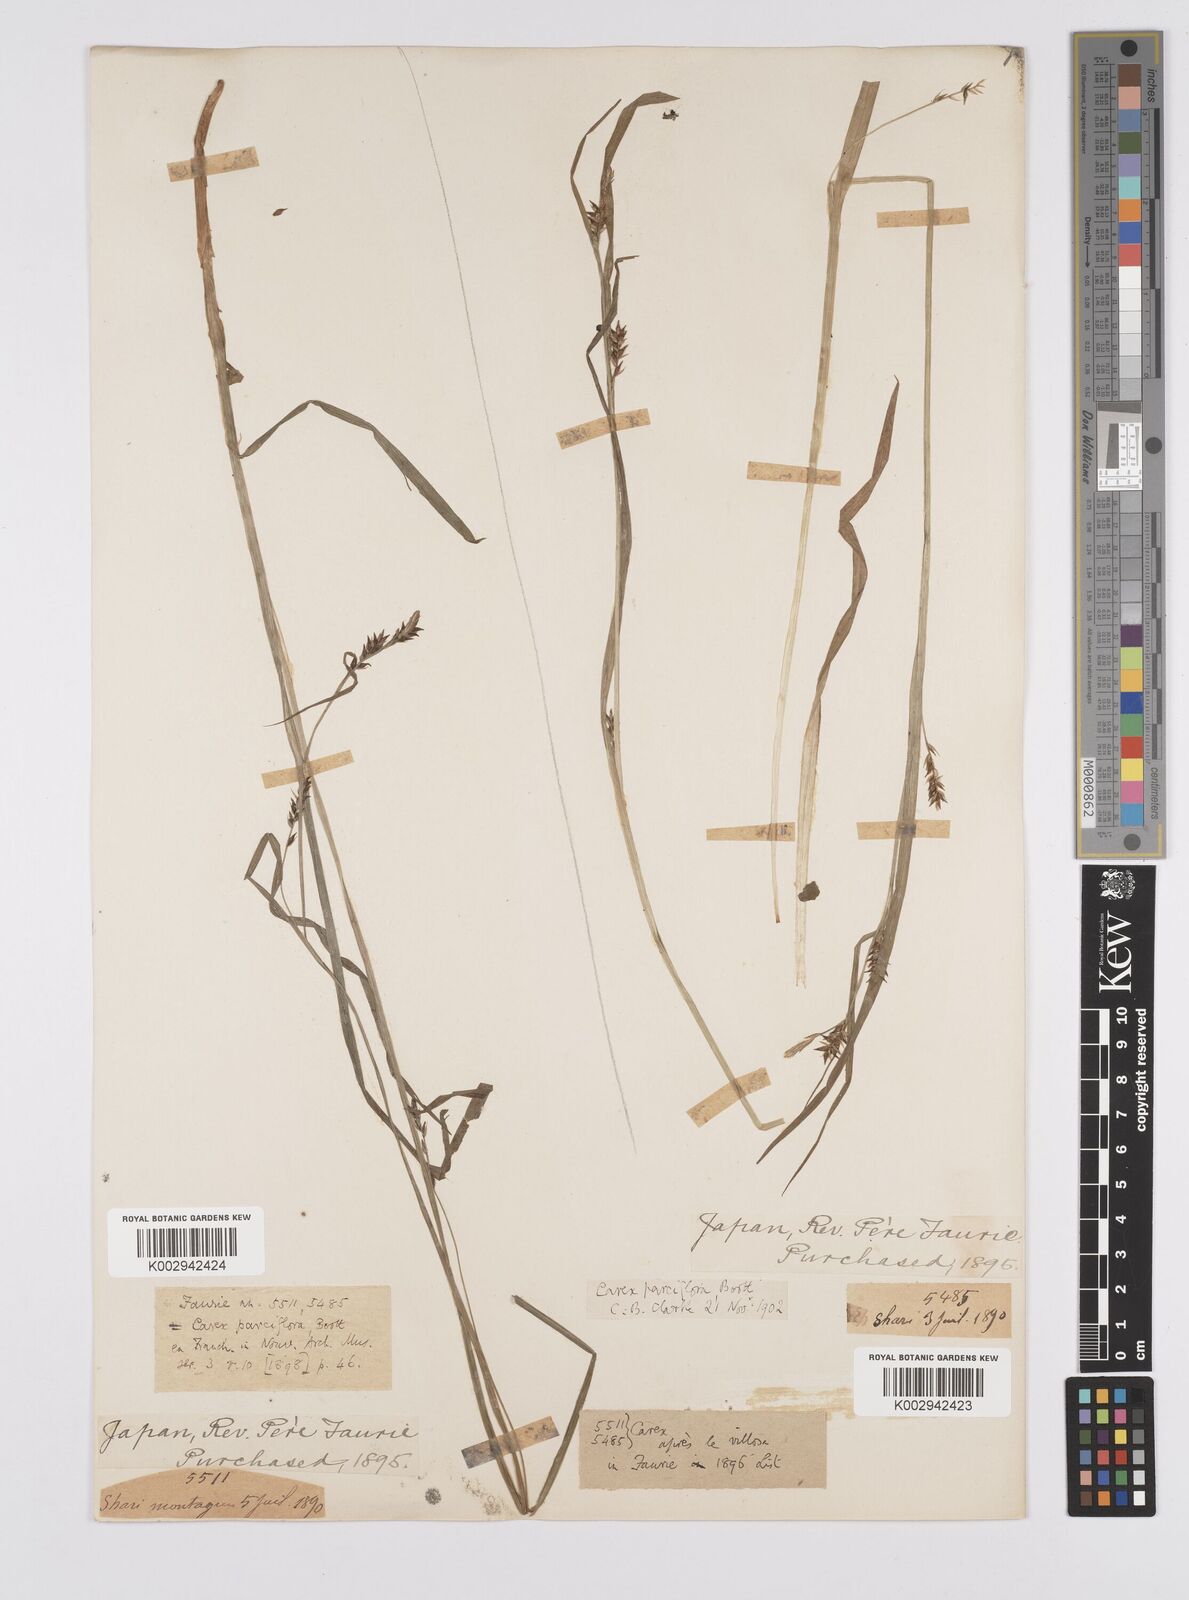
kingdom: Plantae
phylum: Tracheophyta
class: Liliopsida
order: Poales
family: Cyperaceae
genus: Carex
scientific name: Carex parciflora
